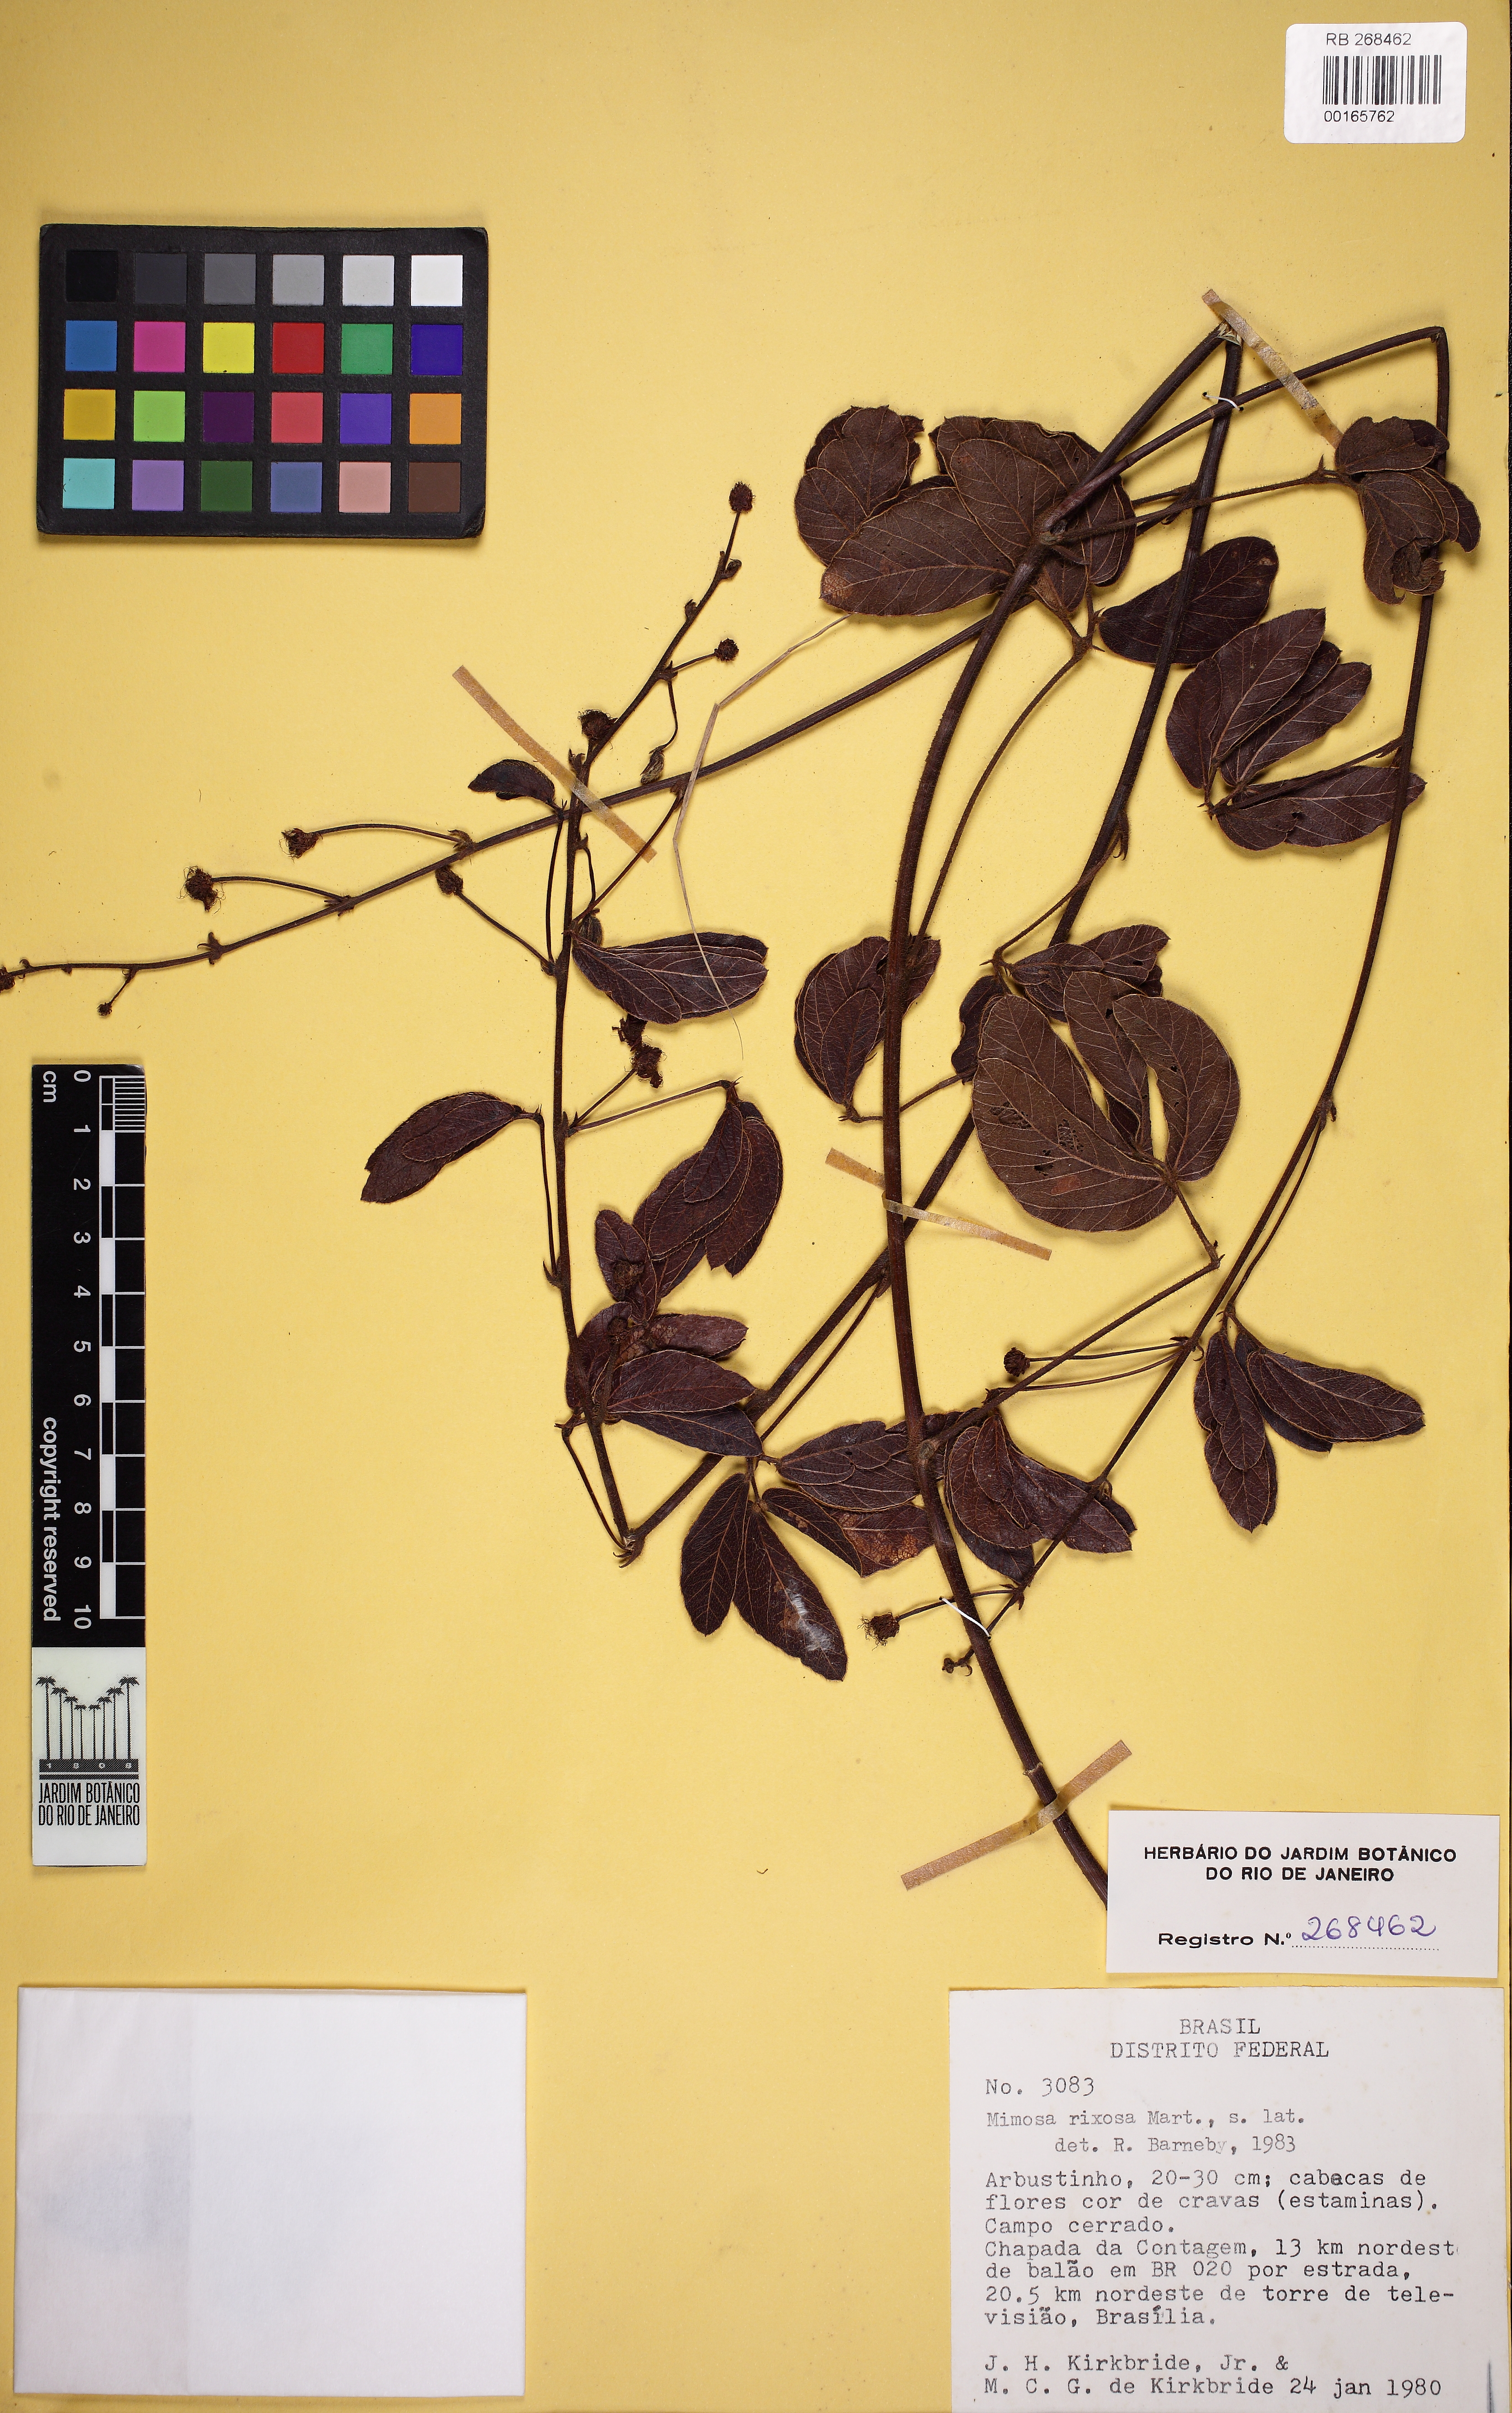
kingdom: Plantae
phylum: Tracheophyta
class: Magnoliopsida
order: Fabales
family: Fabaceae
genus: Mimosa
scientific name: Mimosa debilis
